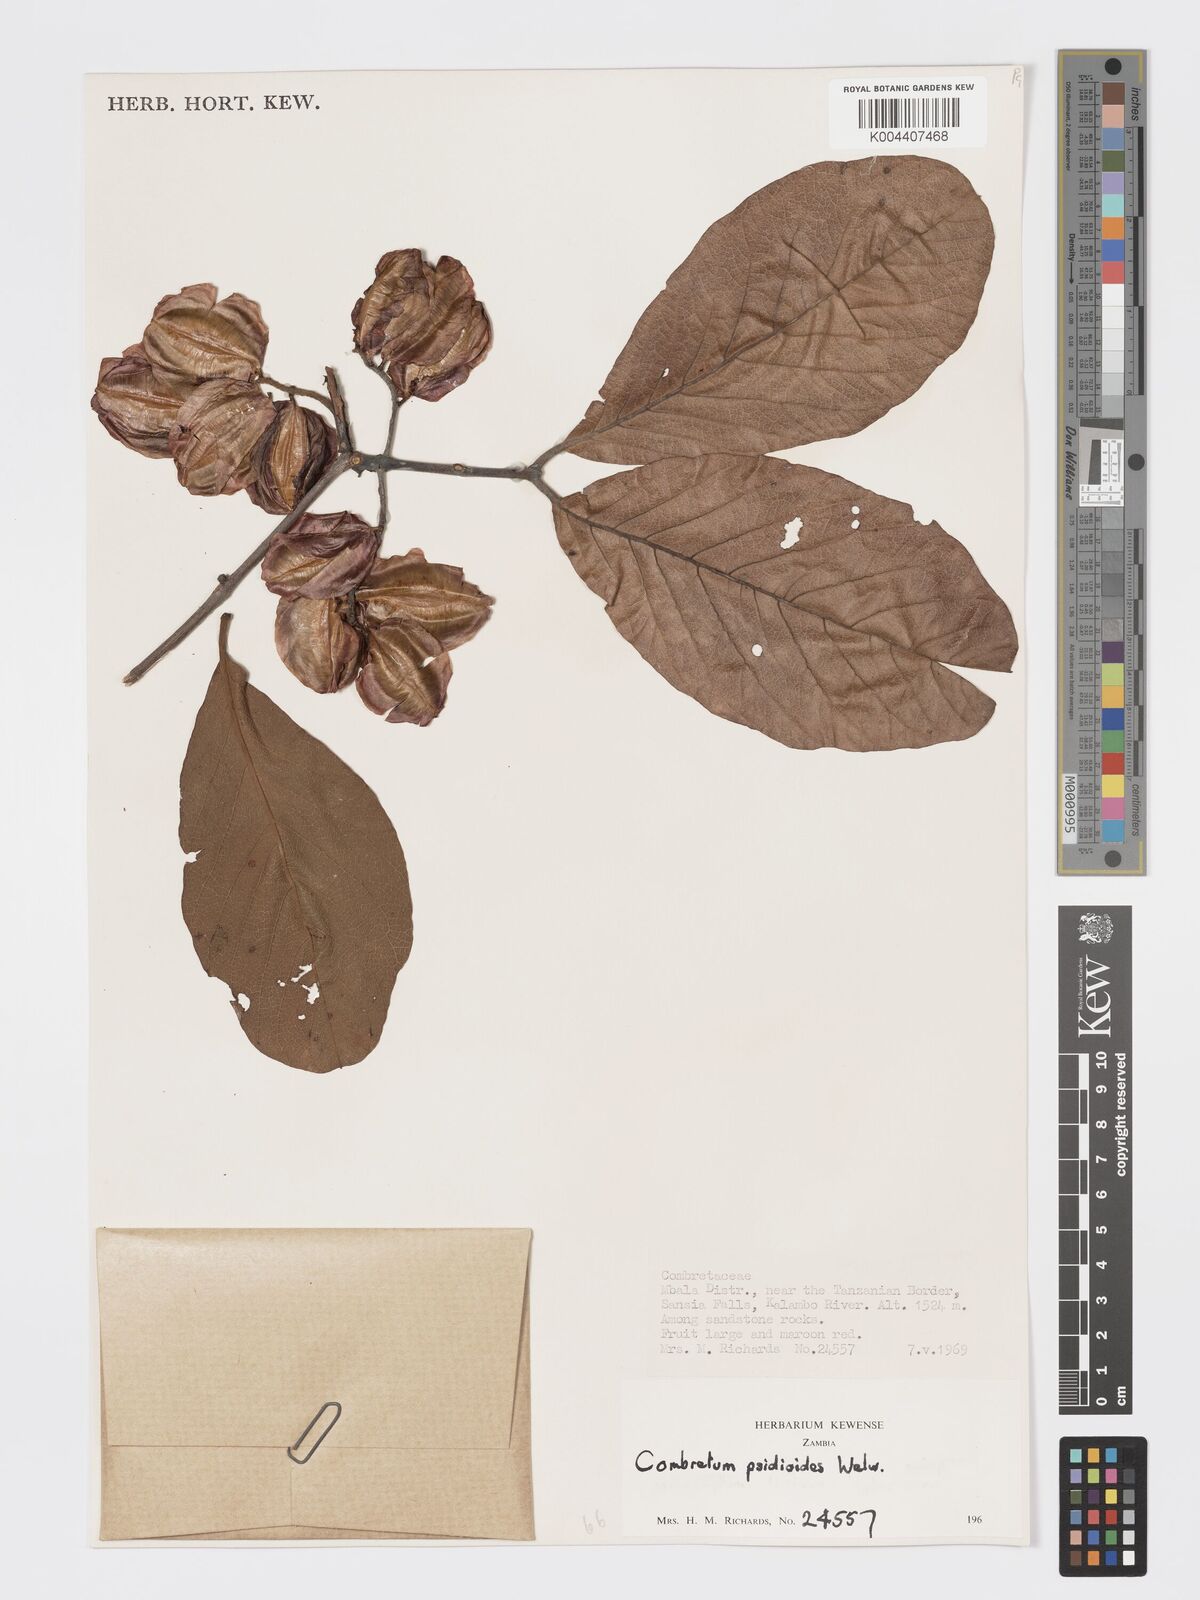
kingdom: Plantae
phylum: Tracheophyta
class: Magnoliopsida
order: Myrtales
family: Combretaceae
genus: Combretum
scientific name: Combretum psidioides
